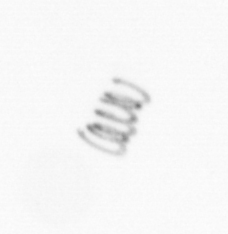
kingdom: Chromista
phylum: Ochrophyta
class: Bacillariophyceae
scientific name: Bacillariophyceae
